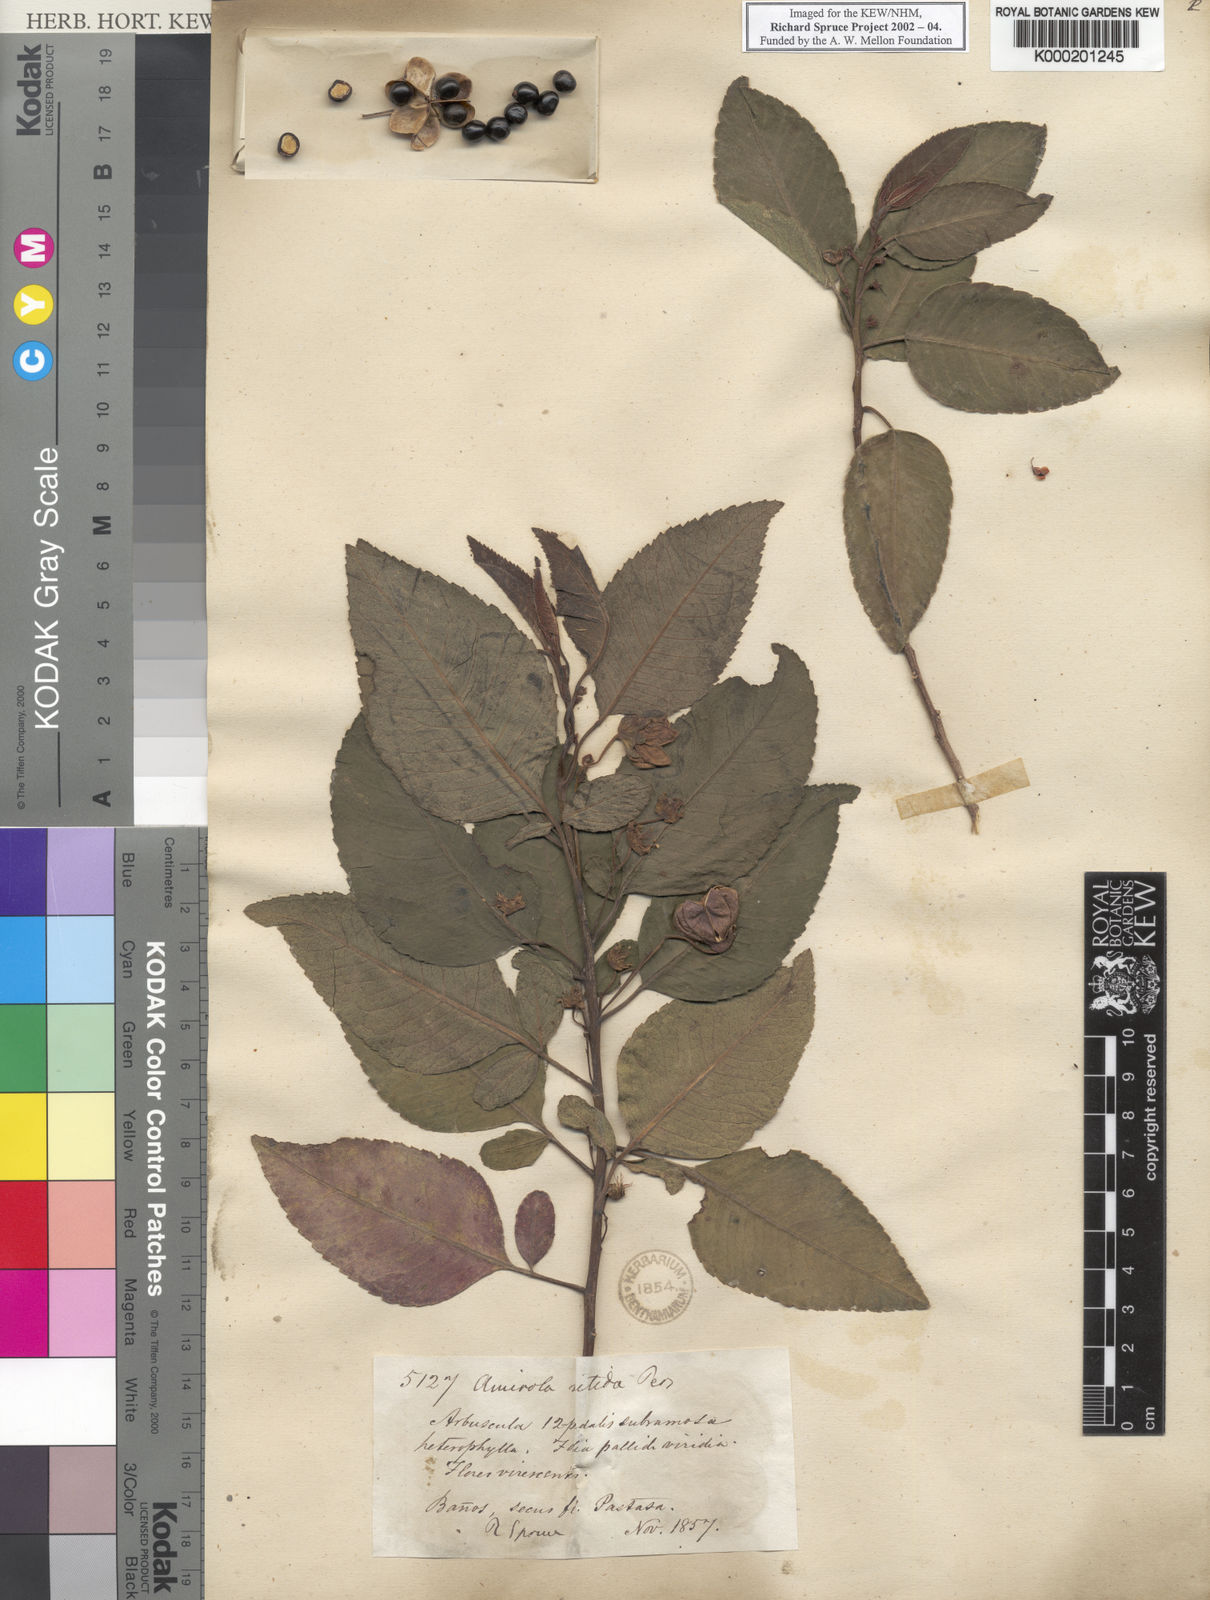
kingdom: Plantae
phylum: Tracheophyta
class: Magnoliopsida
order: Sapindales
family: Sapindaceae
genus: Llagunoa
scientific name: Llagunoa nitida
